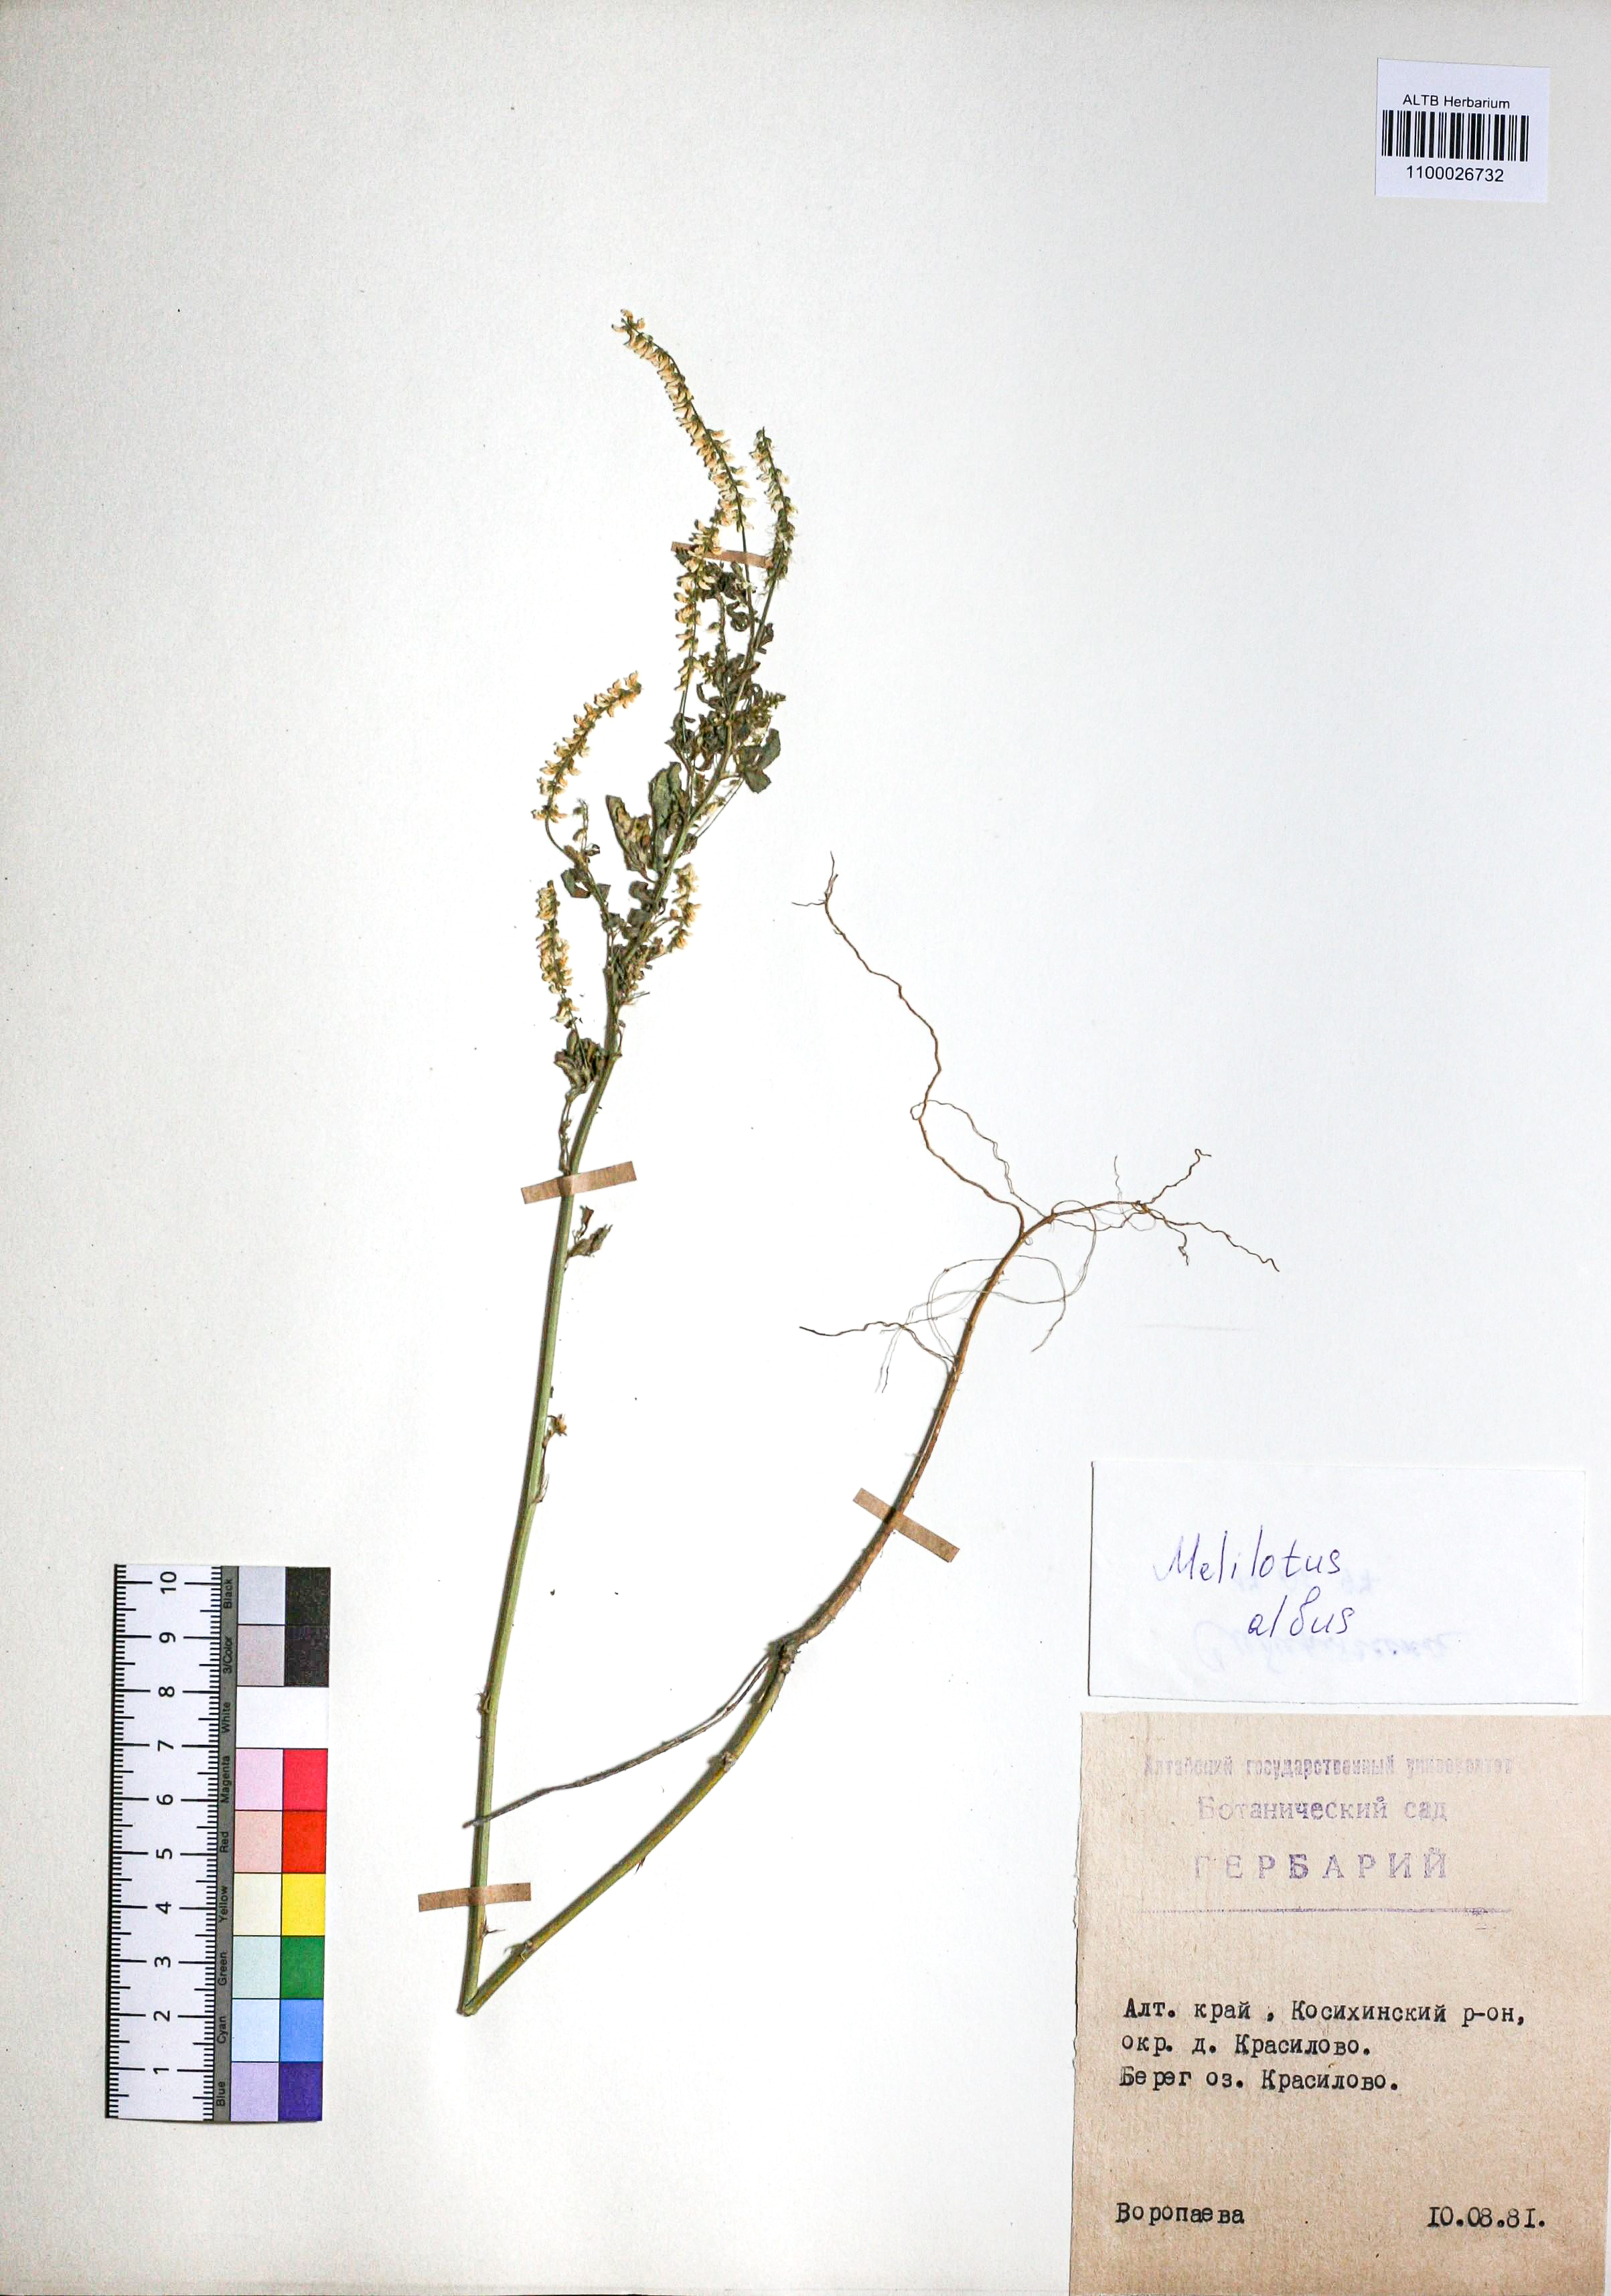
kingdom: Plantae
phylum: Tracheophyta
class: Magnoliopsida
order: Fabales
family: Fabaceae
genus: Melilotus
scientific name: Melilotus albus
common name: White melilot
